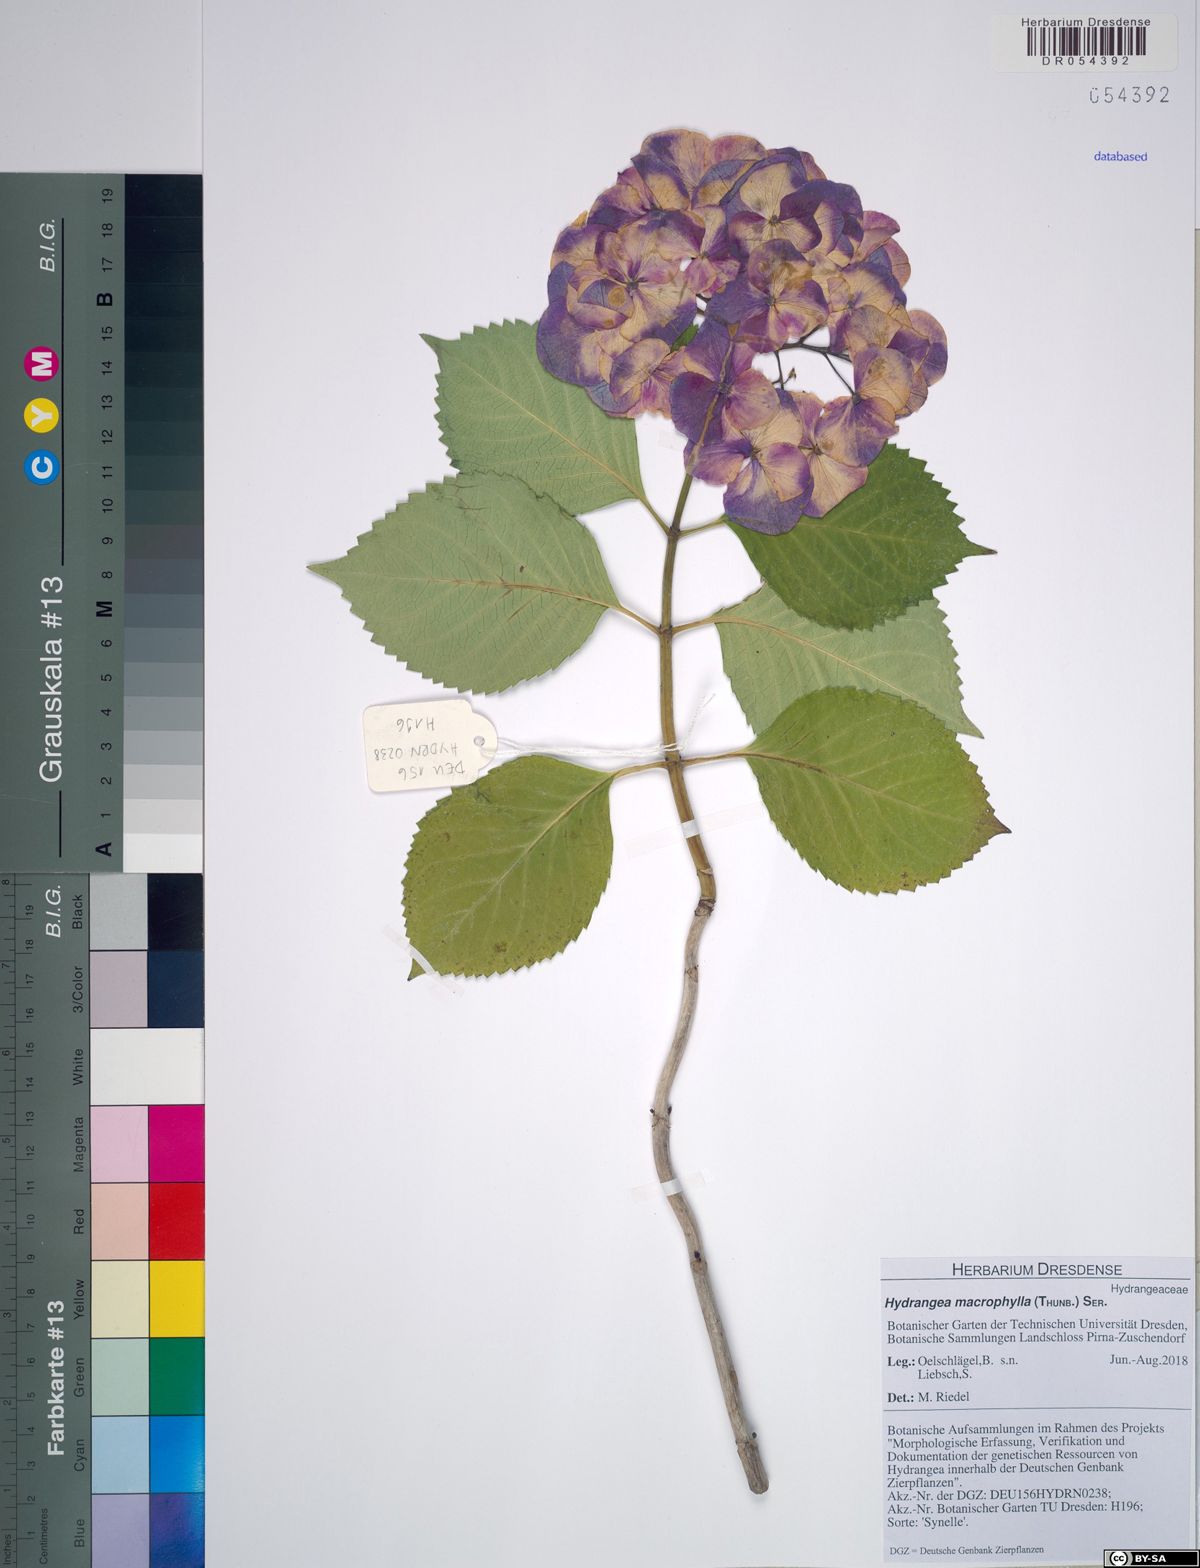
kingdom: Plantae
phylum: Tracheophyta
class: Magnoliopsida
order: Cornales
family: Hydrangeaceae
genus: Hydrangea
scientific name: Hydrangea macrophylla
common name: Hydrangea
